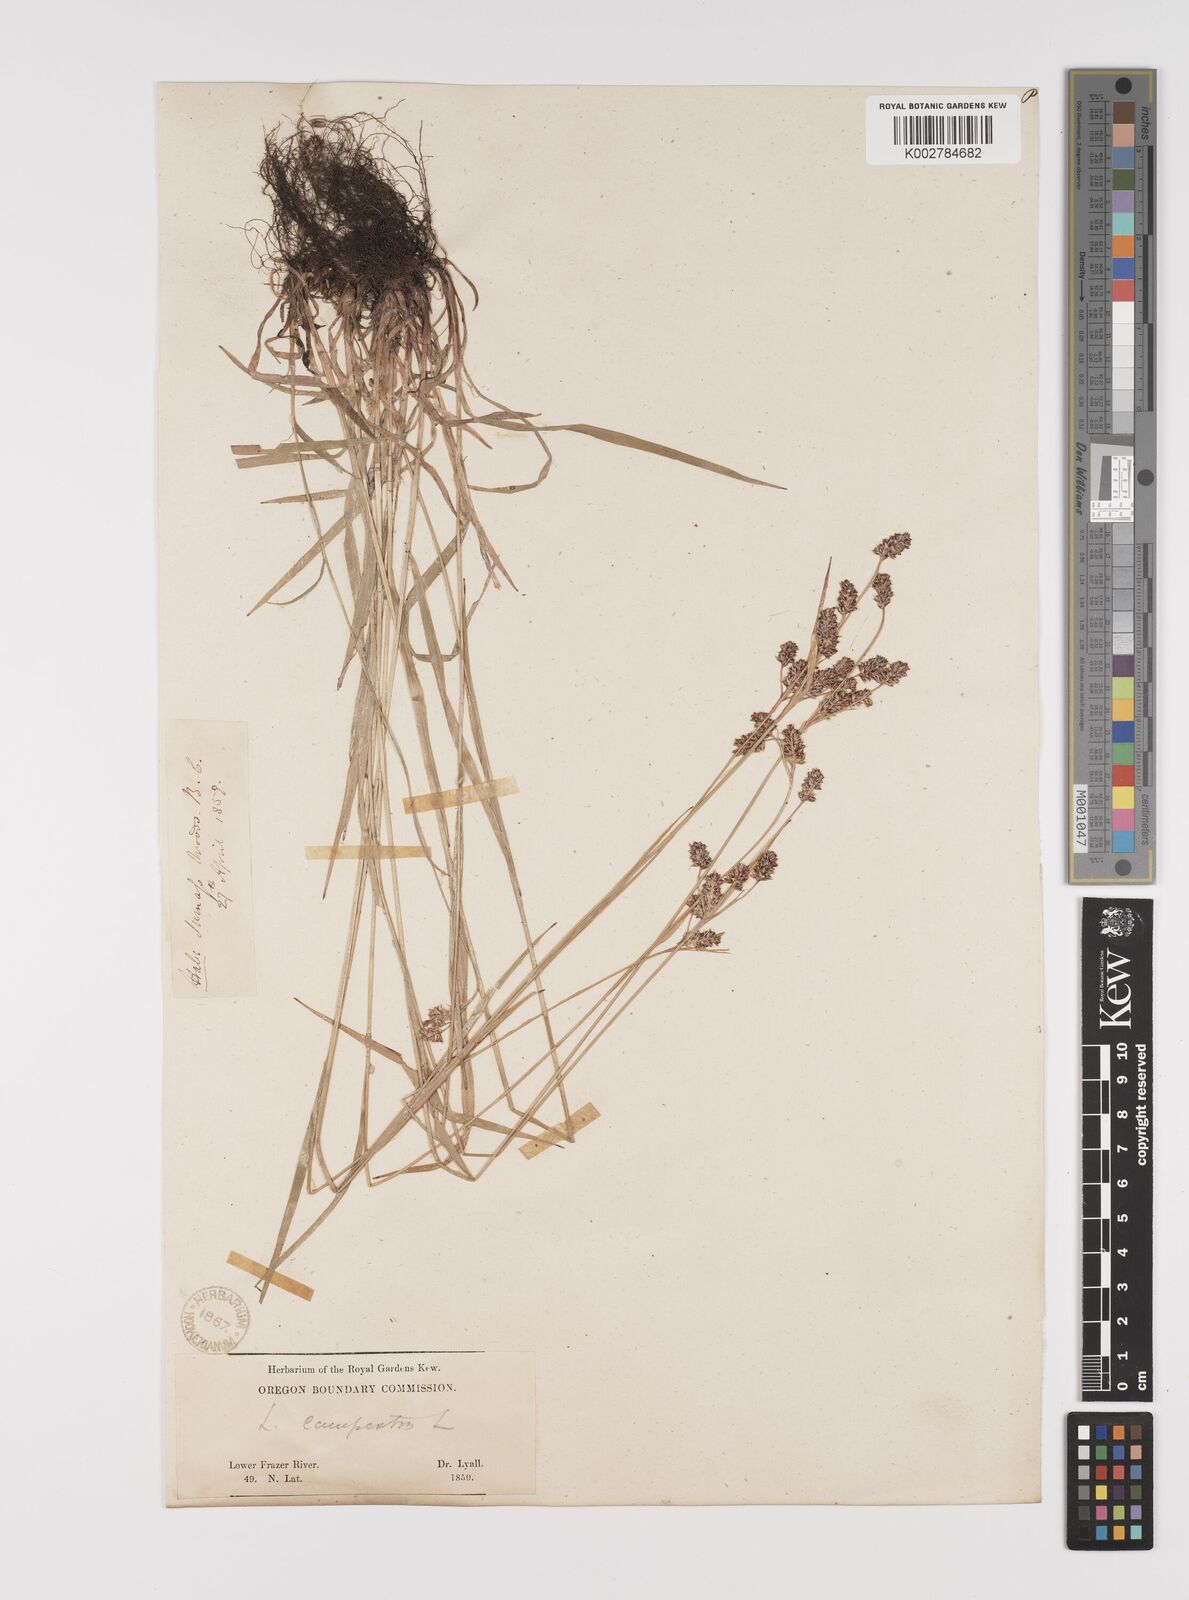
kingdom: Plantae
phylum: Tracheophyta
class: Liliopsida
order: Poales
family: Juncaceae
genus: Luzula
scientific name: Luzula campestris
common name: Field wood-rush
